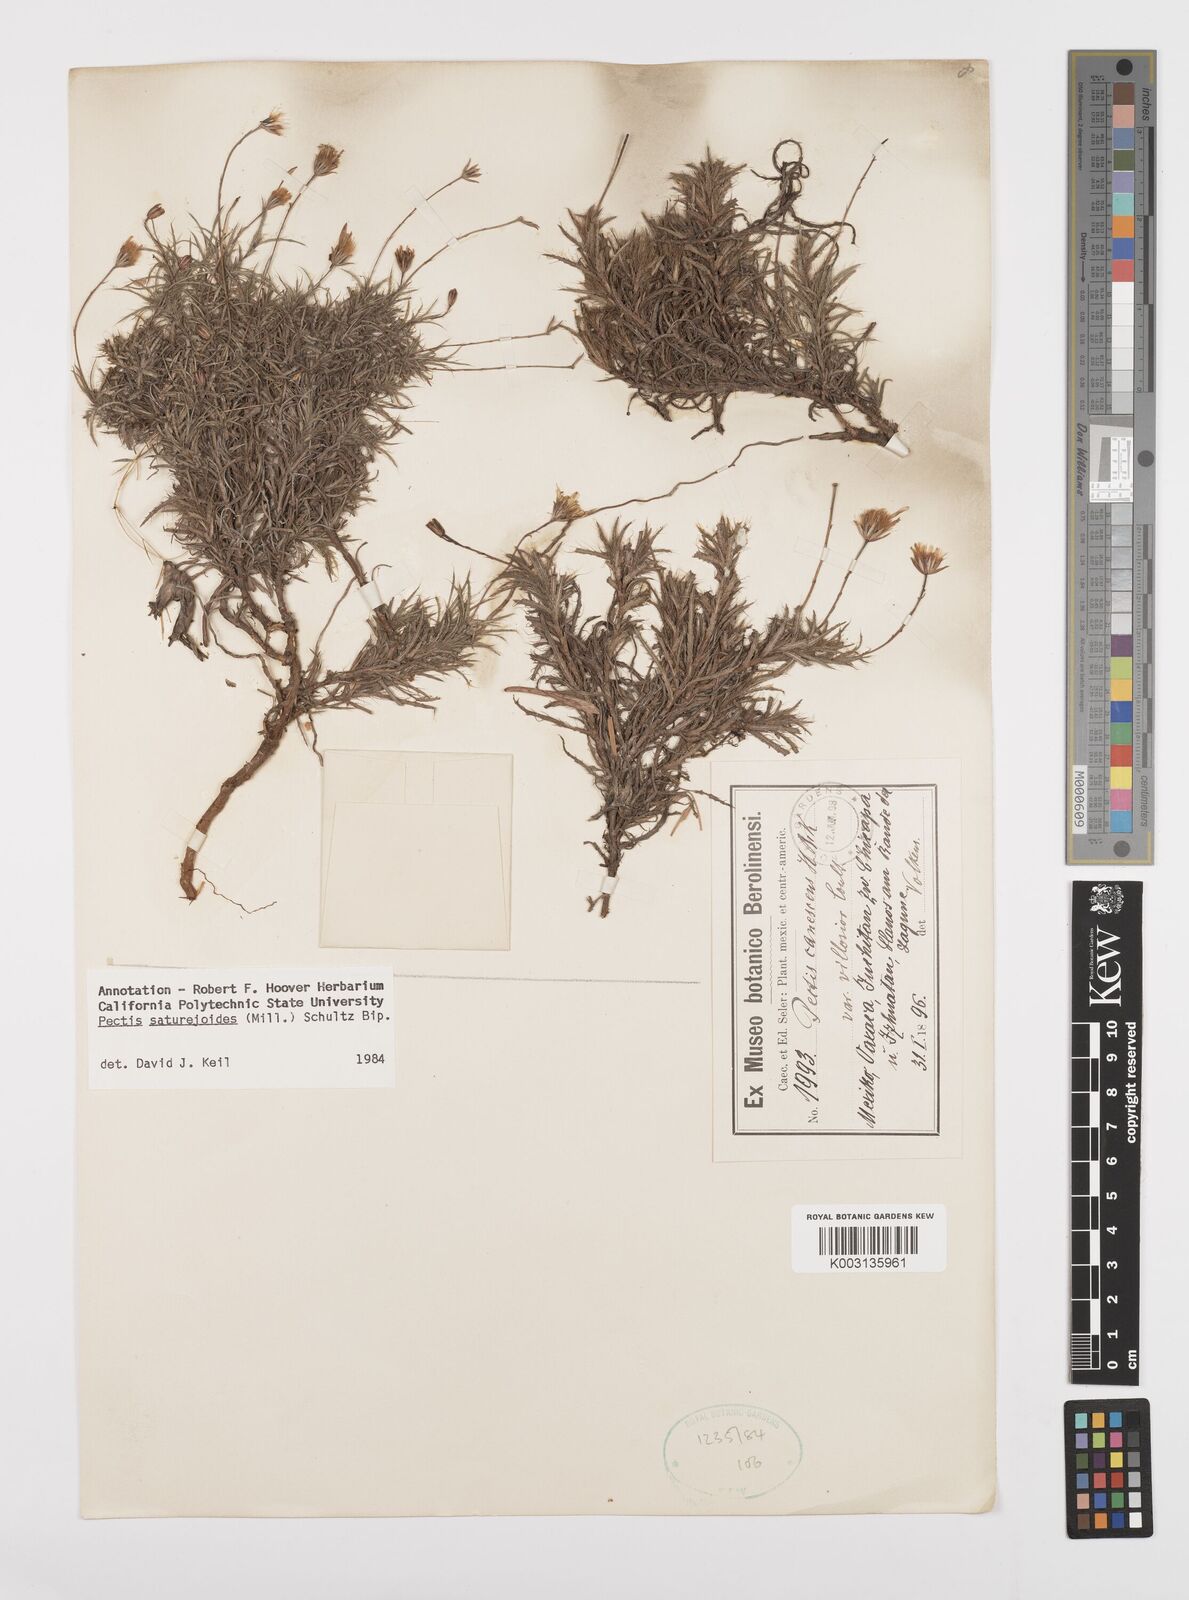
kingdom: Plantae
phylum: Tracheophyta
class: Magnoliopsida
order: Asterales
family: Asteraceae
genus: Pectis
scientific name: Pectis saturejoides
